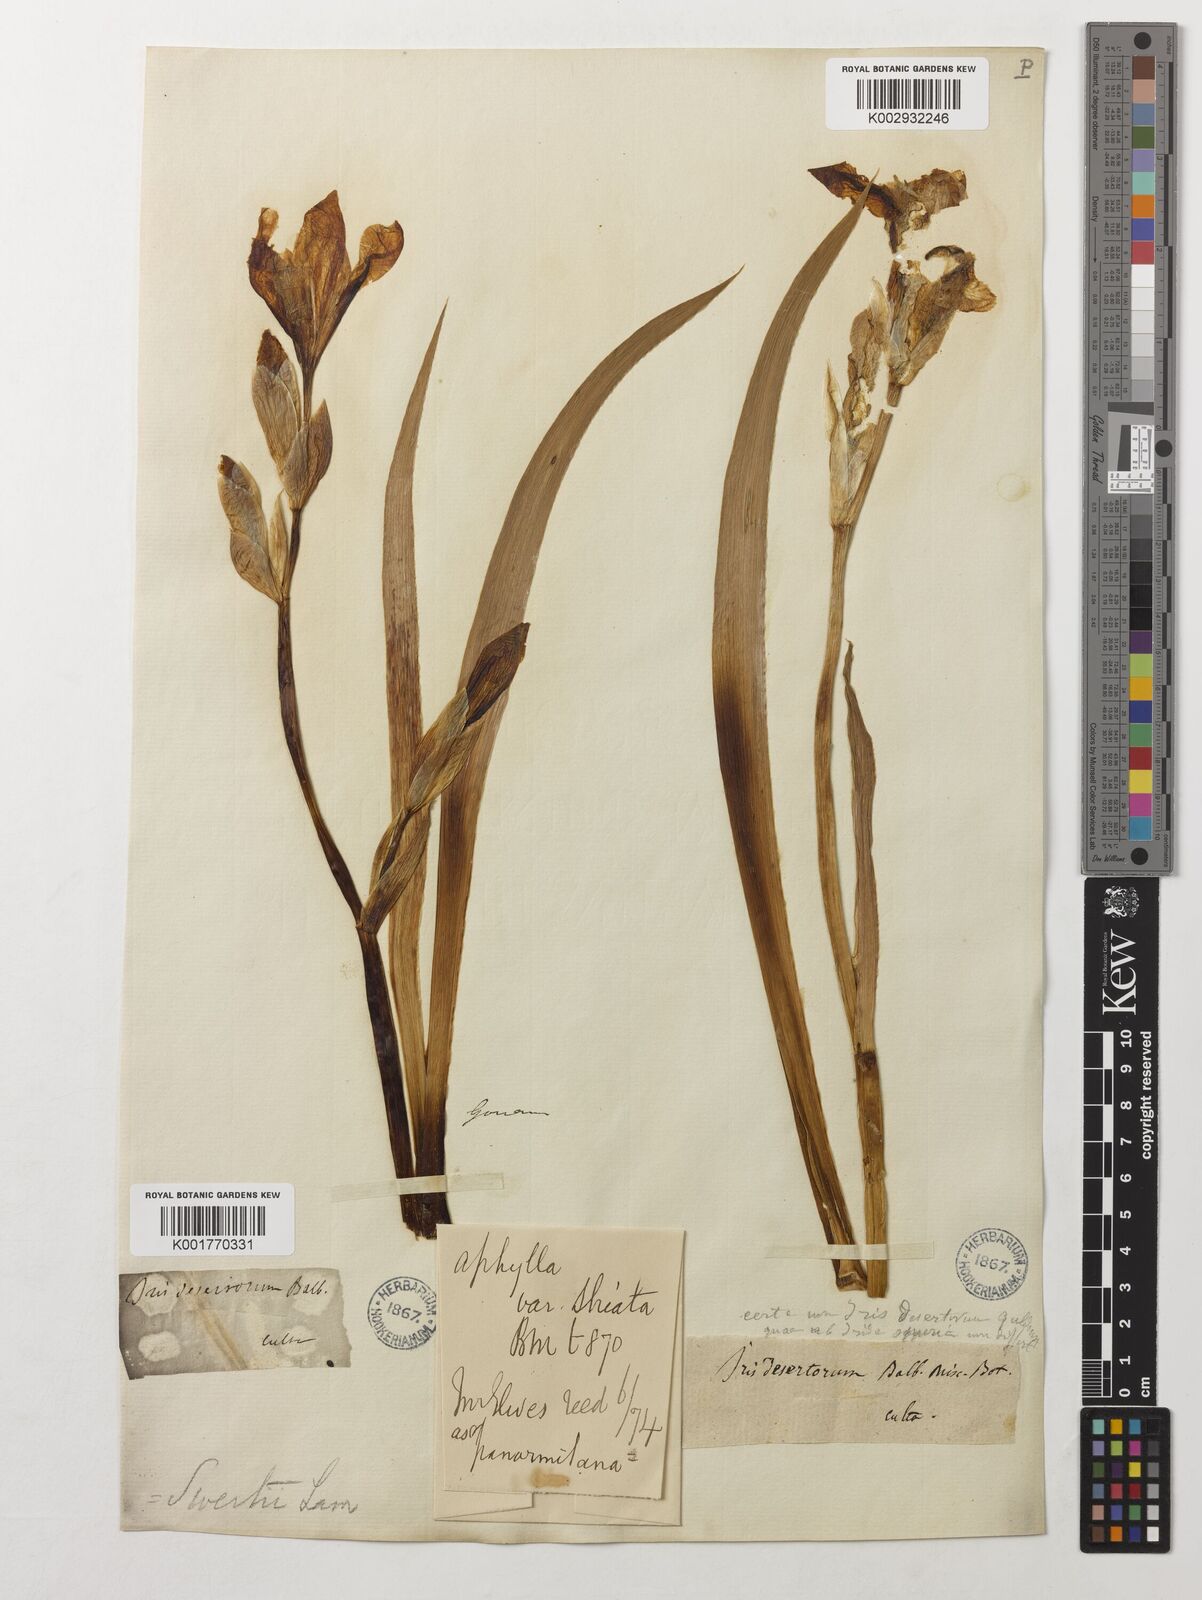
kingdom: Plantae
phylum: Tracheophyta
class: Liliopsida
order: Asparagales
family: Iridaceae
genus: Iris
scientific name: Iris pallida
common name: Sweet iris
